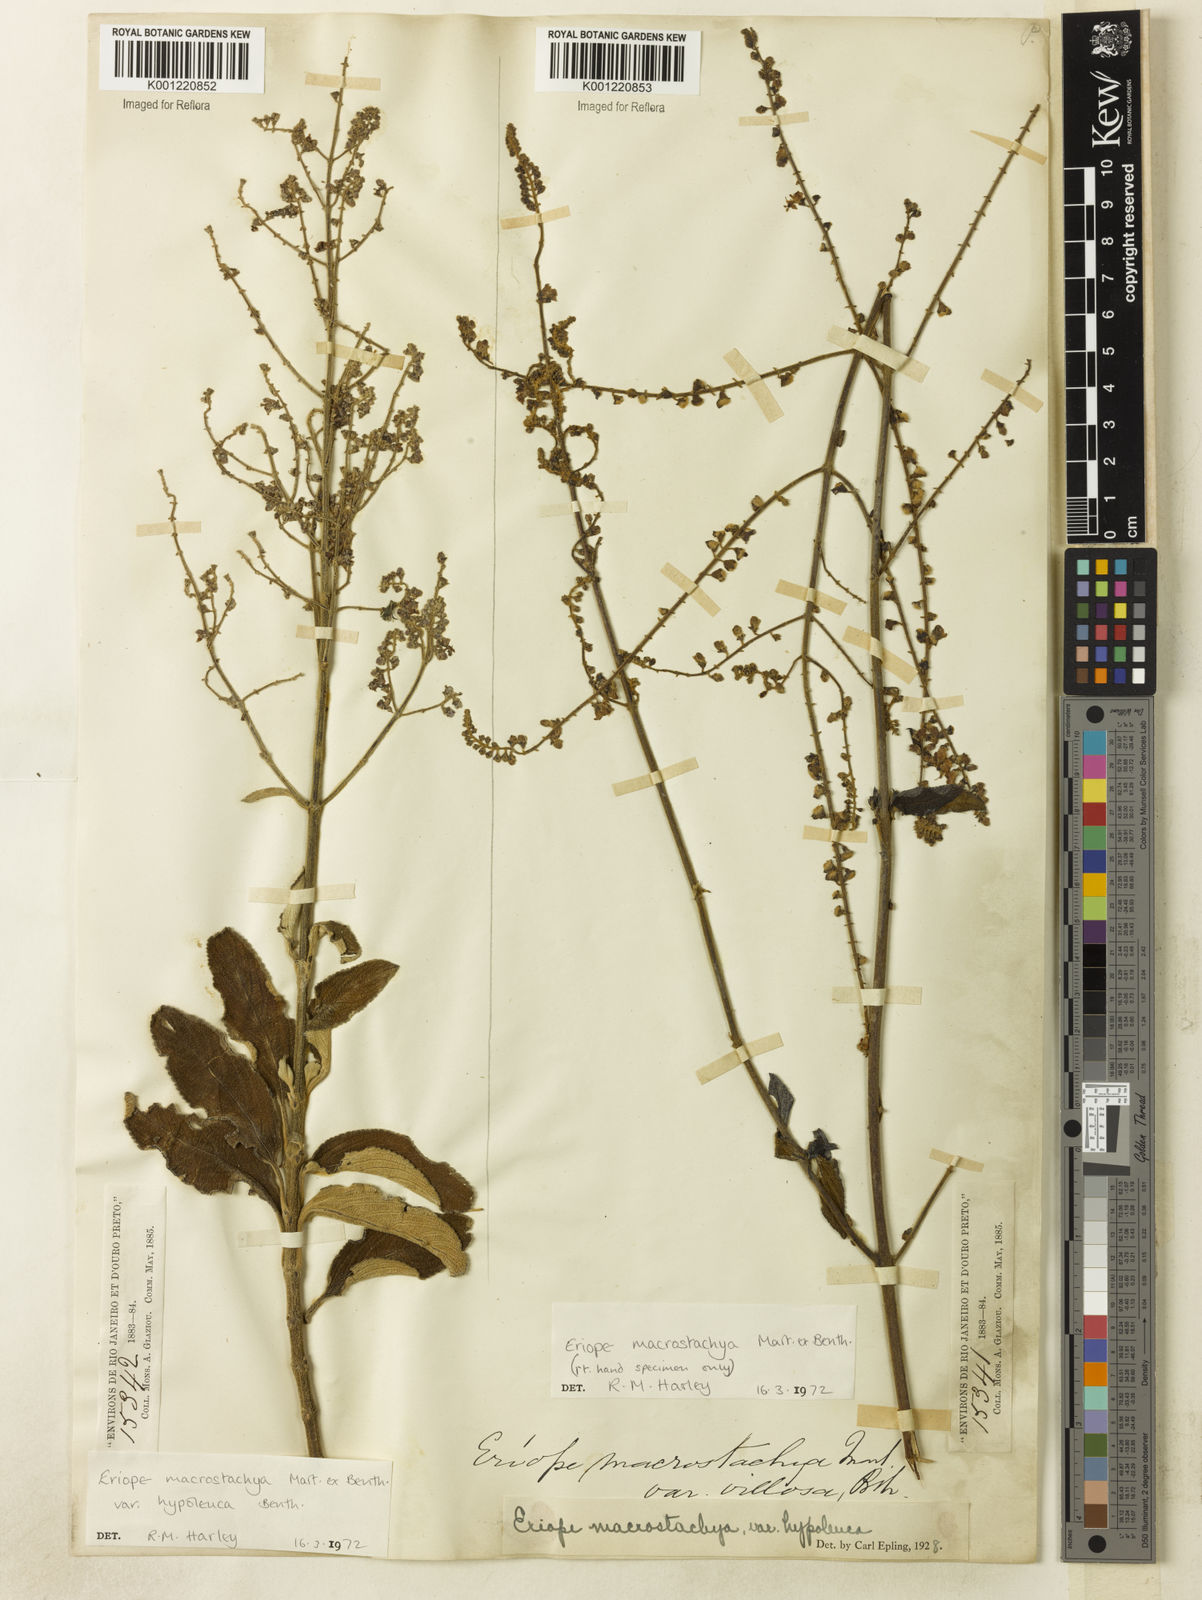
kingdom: Plantae
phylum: Tracheophyta
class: Magnoliopsida
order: Lamiales
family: Lamiaceae
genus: Eriope
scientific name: Eriope macrostachya
